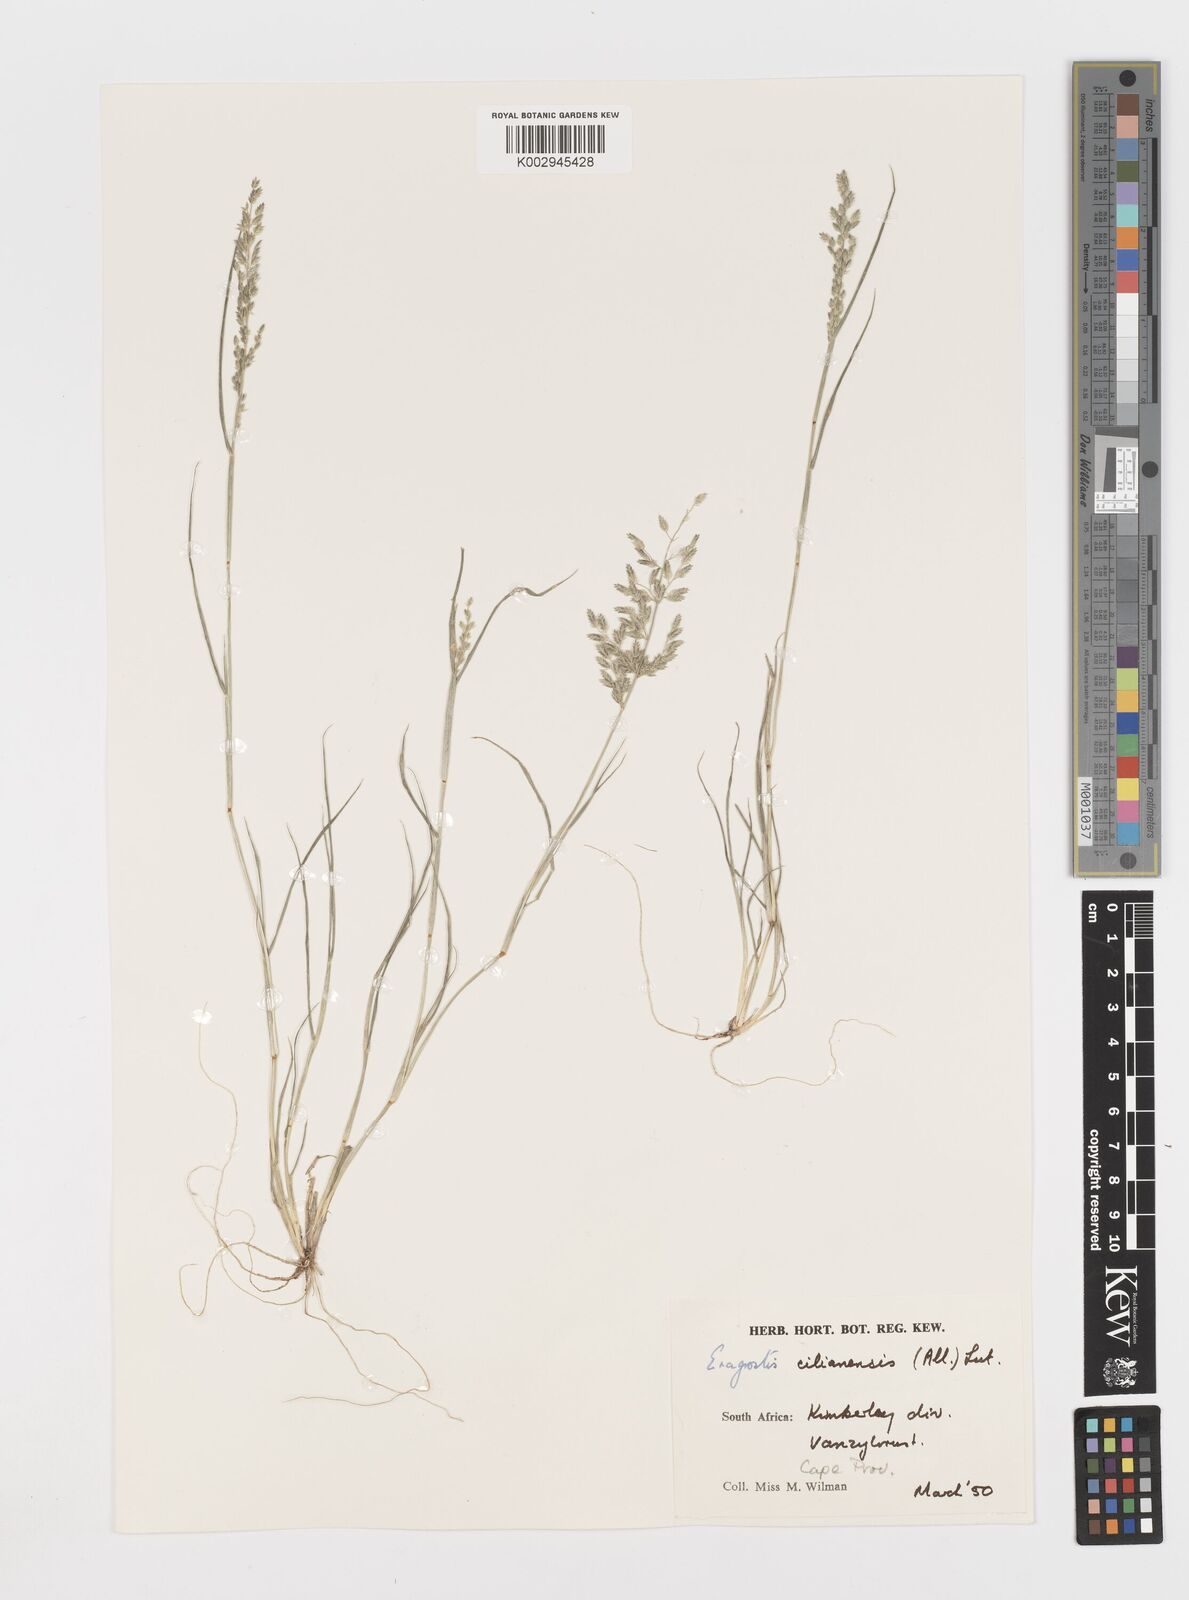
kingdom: Plantae
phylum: Tracheophyta
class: Liliopsida
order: Poales
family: Poaceae
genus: Eragrostis
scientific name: Eragrostis cilianensis
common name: Stinkgrass
